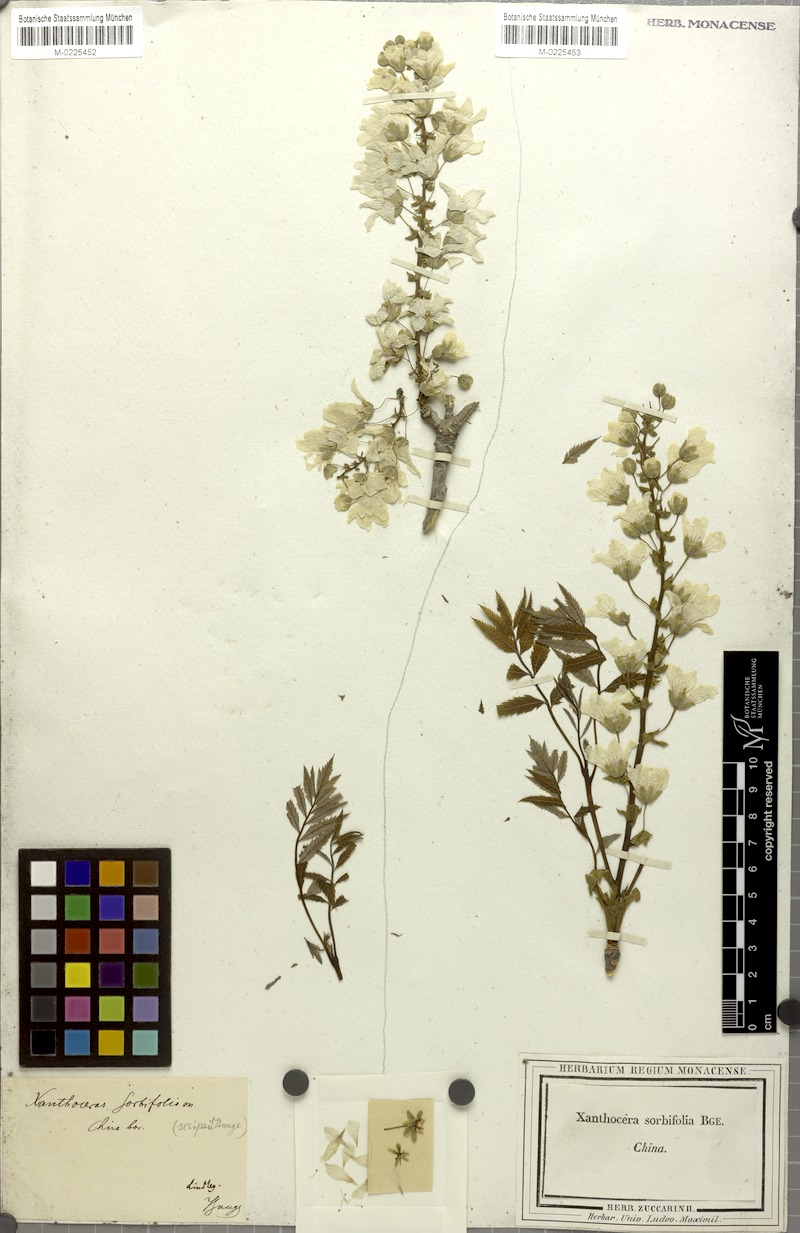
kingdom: Plantae
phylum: Tracheophyta
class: Magnoliopsida
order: Sapindales
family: Sapindaceae
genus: Xanthoceras
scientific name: Xanthoceras sorbifolia
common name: Yellow-horn
